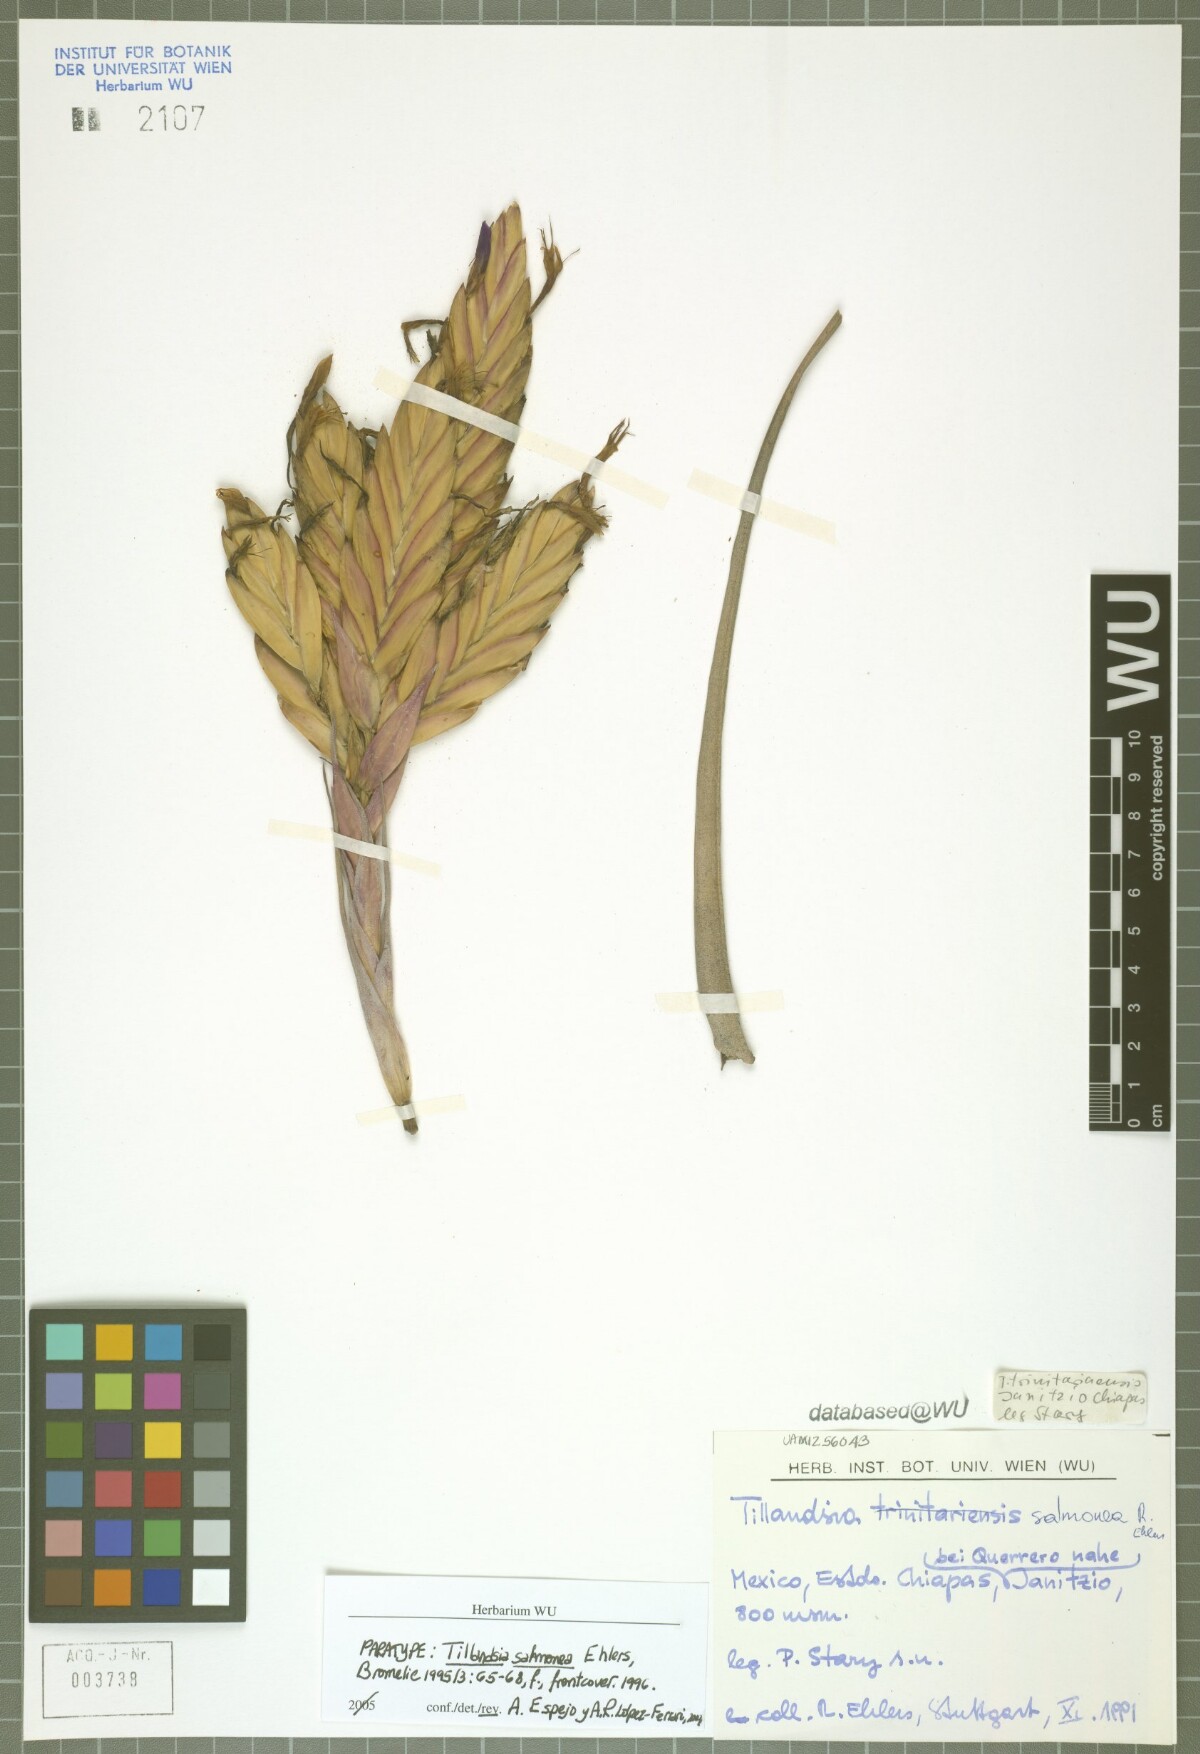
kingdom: Plantae
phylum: Tracheophyta
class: Liliopsida
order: Poales
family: Bromeliaceae
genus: Tillandsia
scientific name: Tillandsia salmonea
